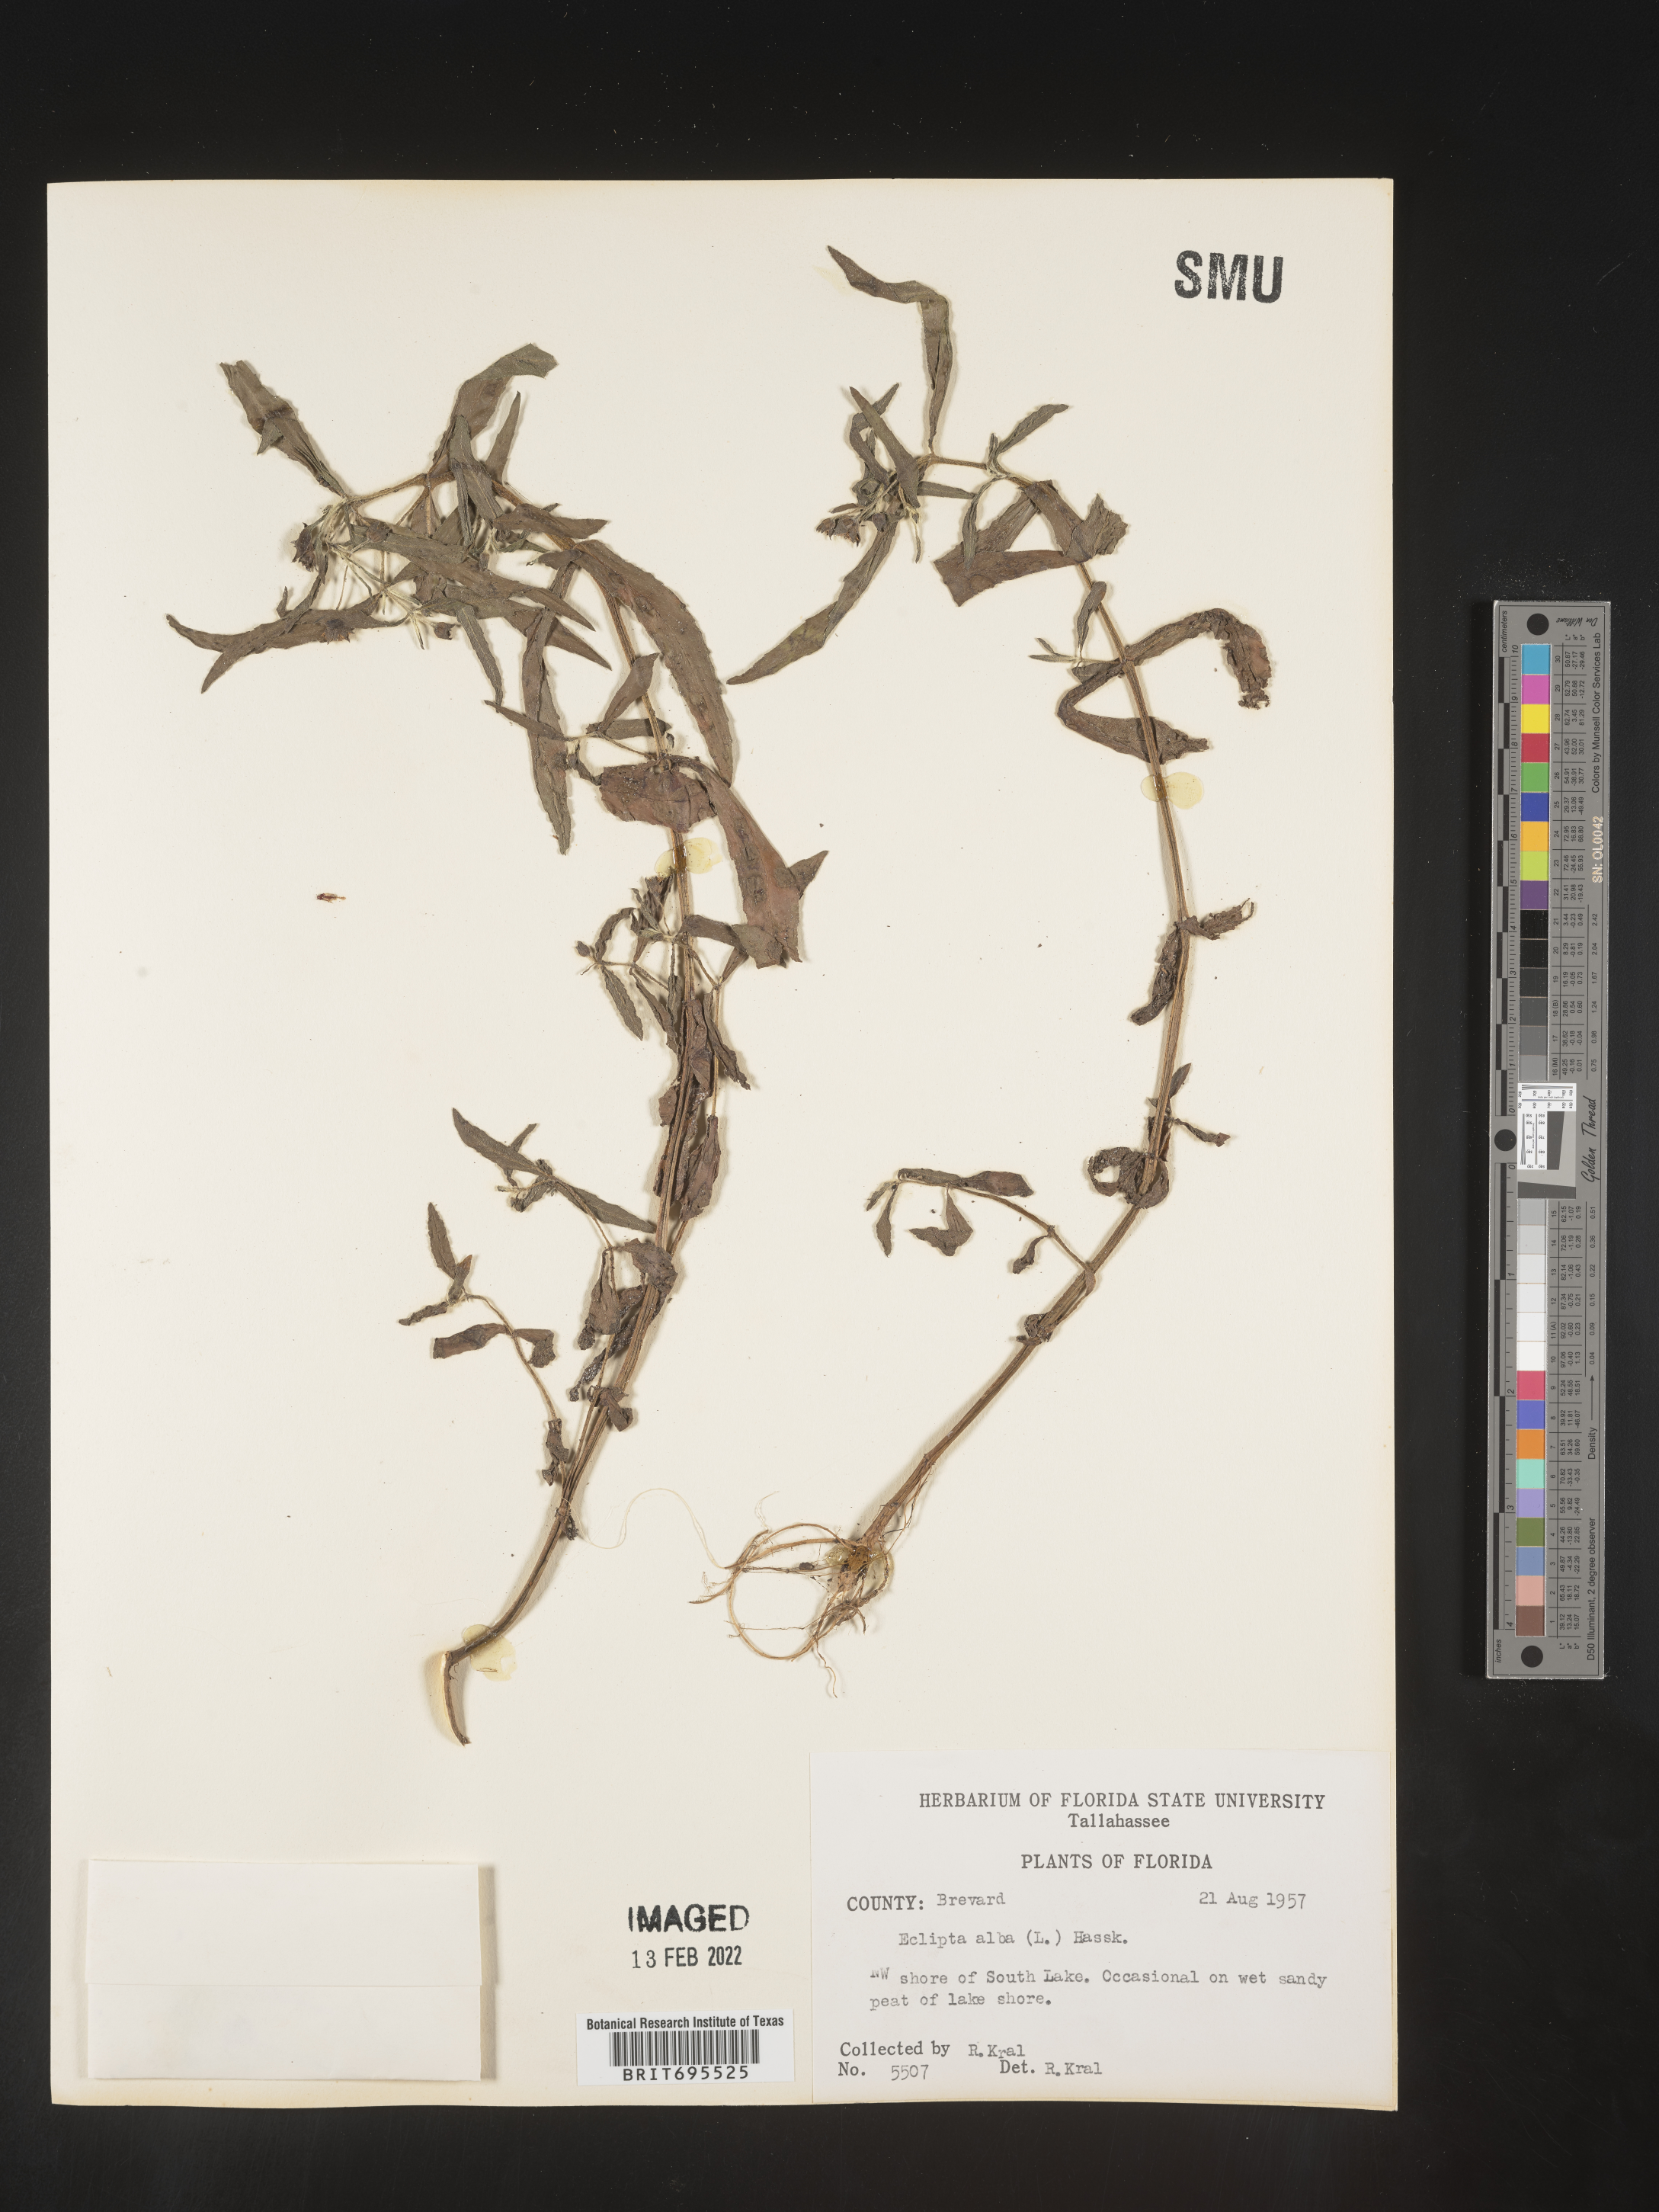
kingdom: Plantae
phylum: Tracheophyta
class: Magnoliopsida
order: Asterales
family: Asteraceae
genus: Eclipta
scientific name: Eclipta alba
